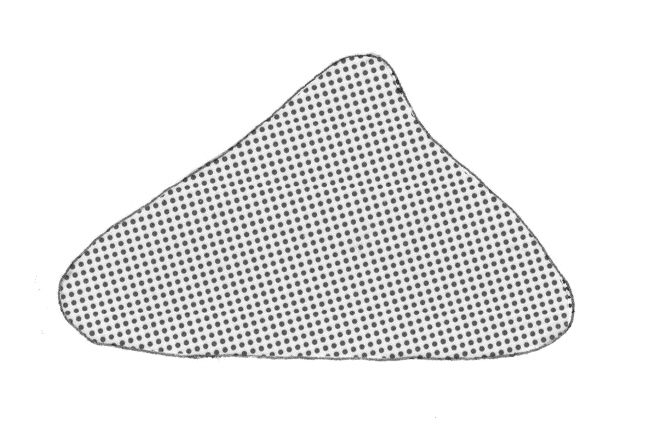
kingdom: Animalia
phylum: Chordata
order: Perciformes
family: Serranidae
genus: Meganthias
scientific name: Meganthias kingyo
